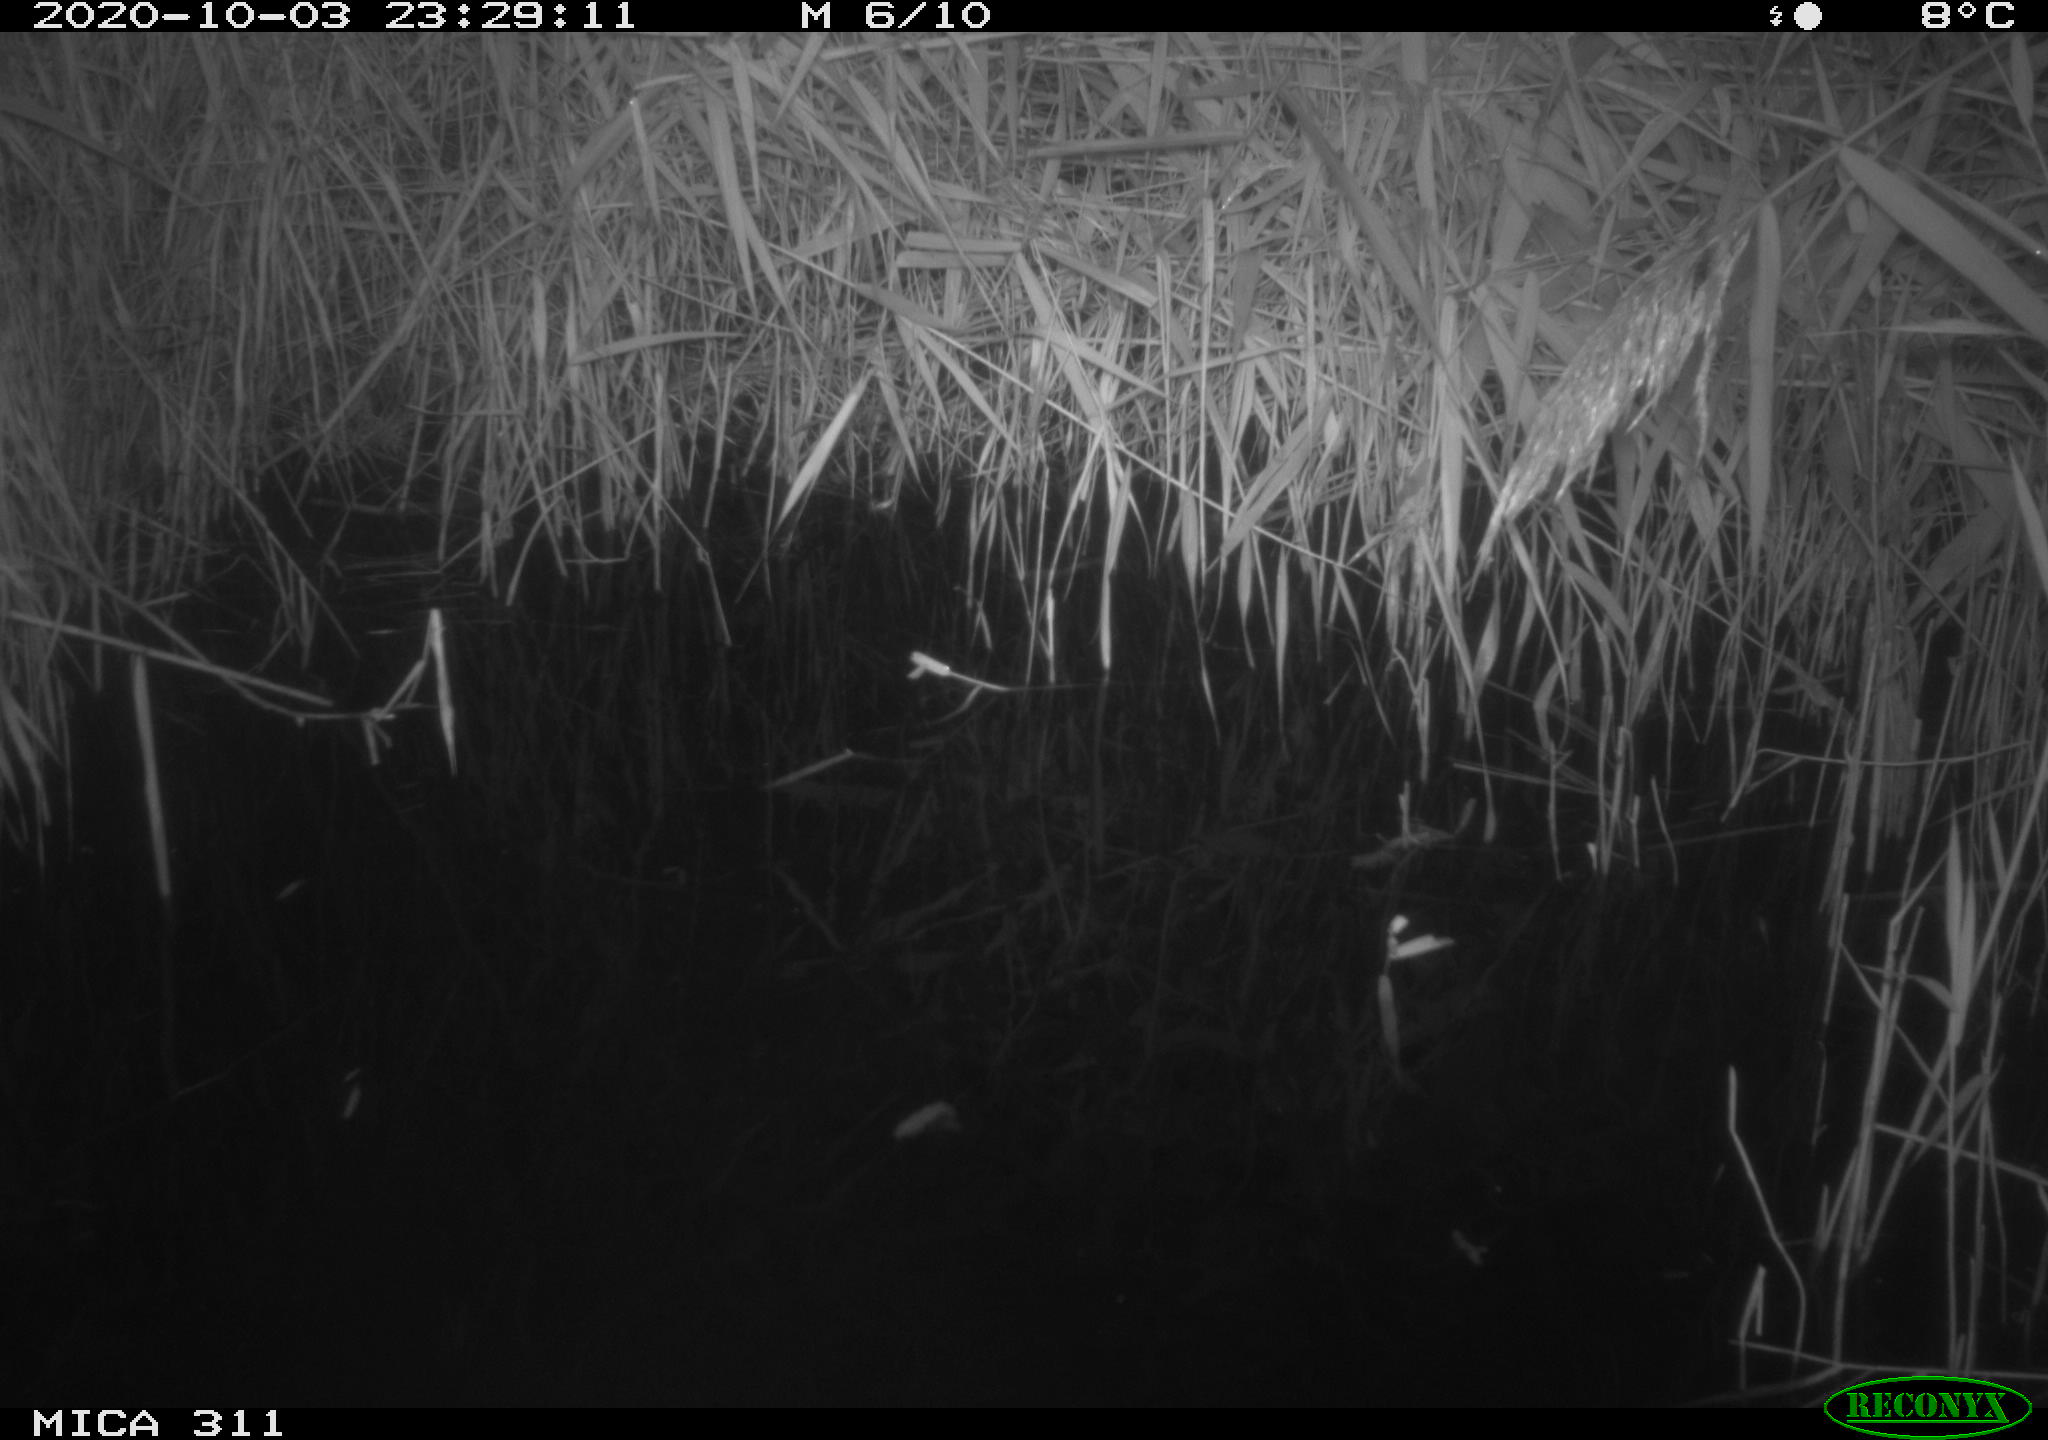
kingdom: Animalia
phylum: Chordata
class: Mammalia
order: Rodentia
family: Muridae
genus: Rattus
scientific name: Rattus norvegicus
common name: Brown rat
